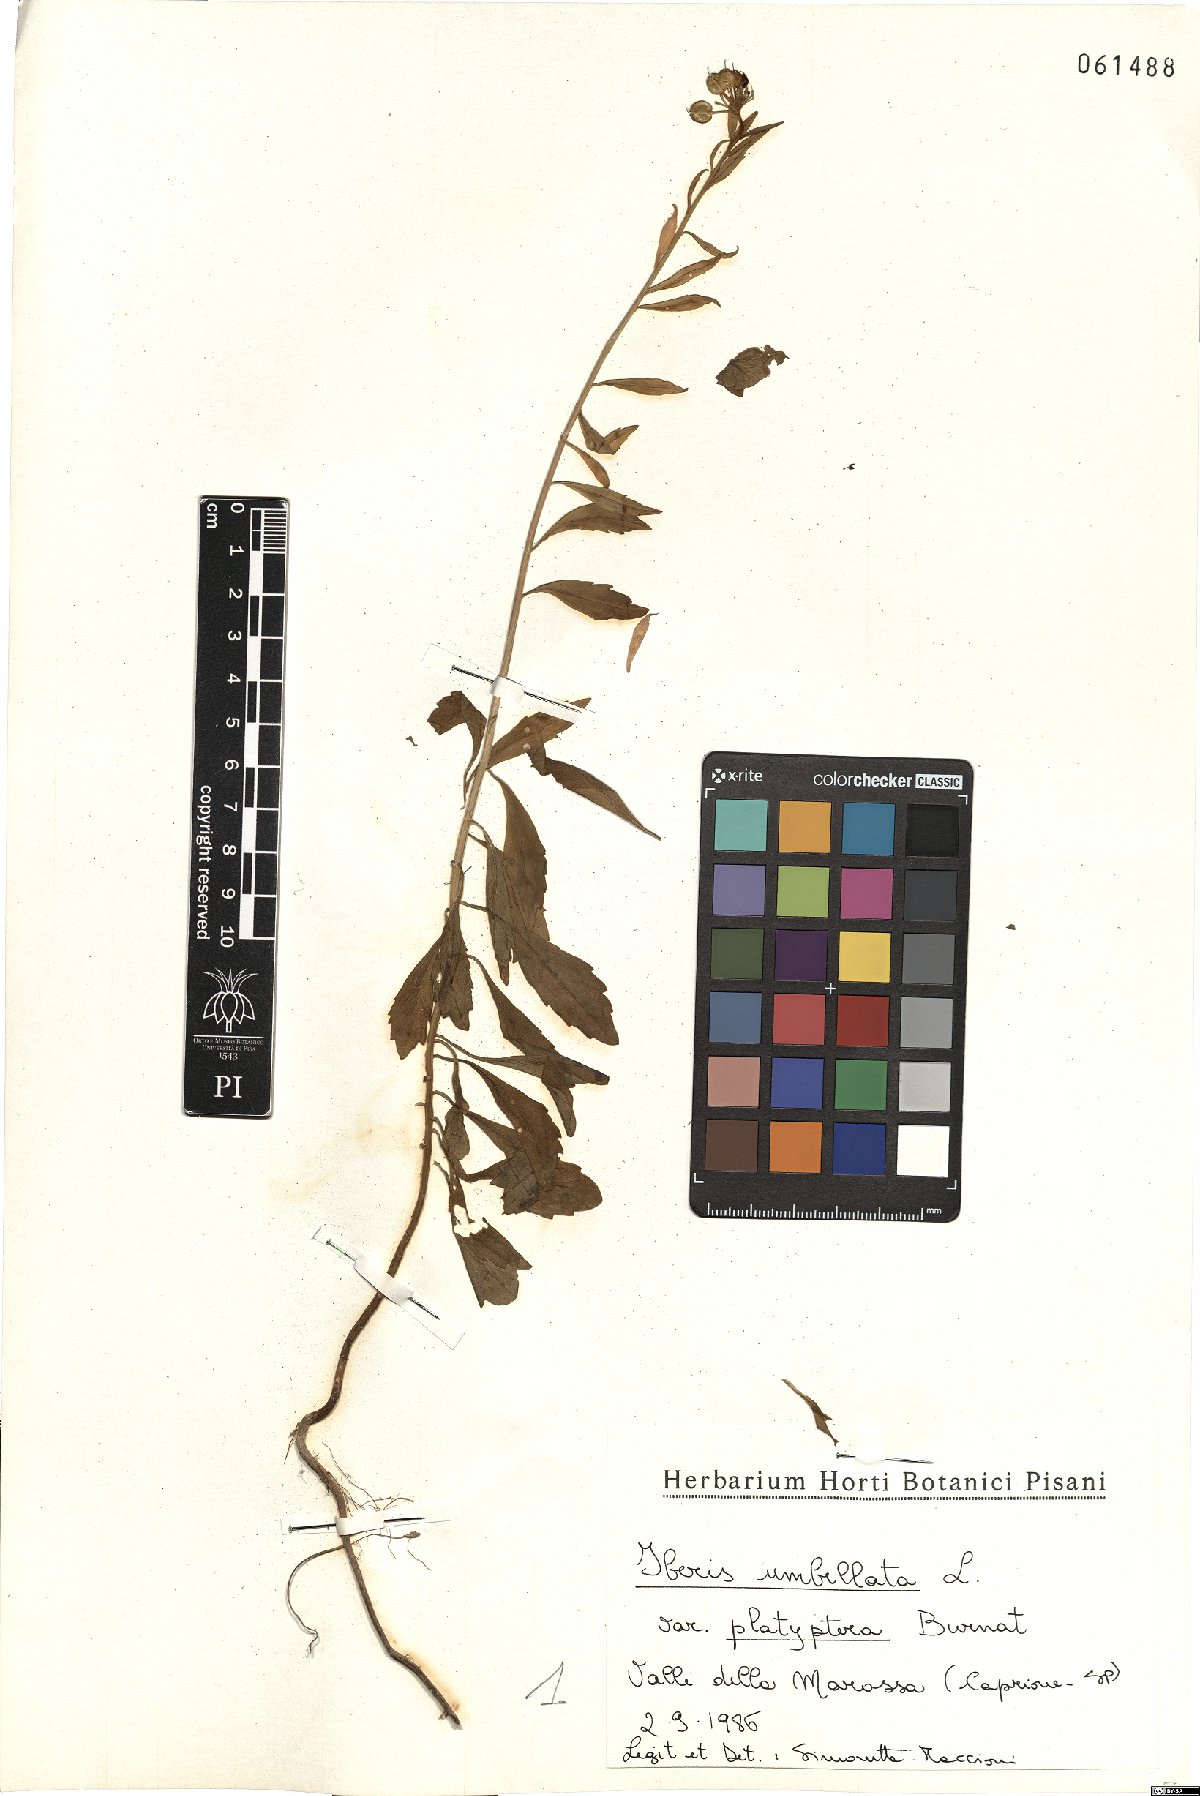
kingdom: Plantae
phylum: Tracheophyta
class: Magnoliopsida
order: Brassicales
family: Brassicaceae
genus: Iberis
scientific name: Iberis umbellata
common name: Globe candytuft
